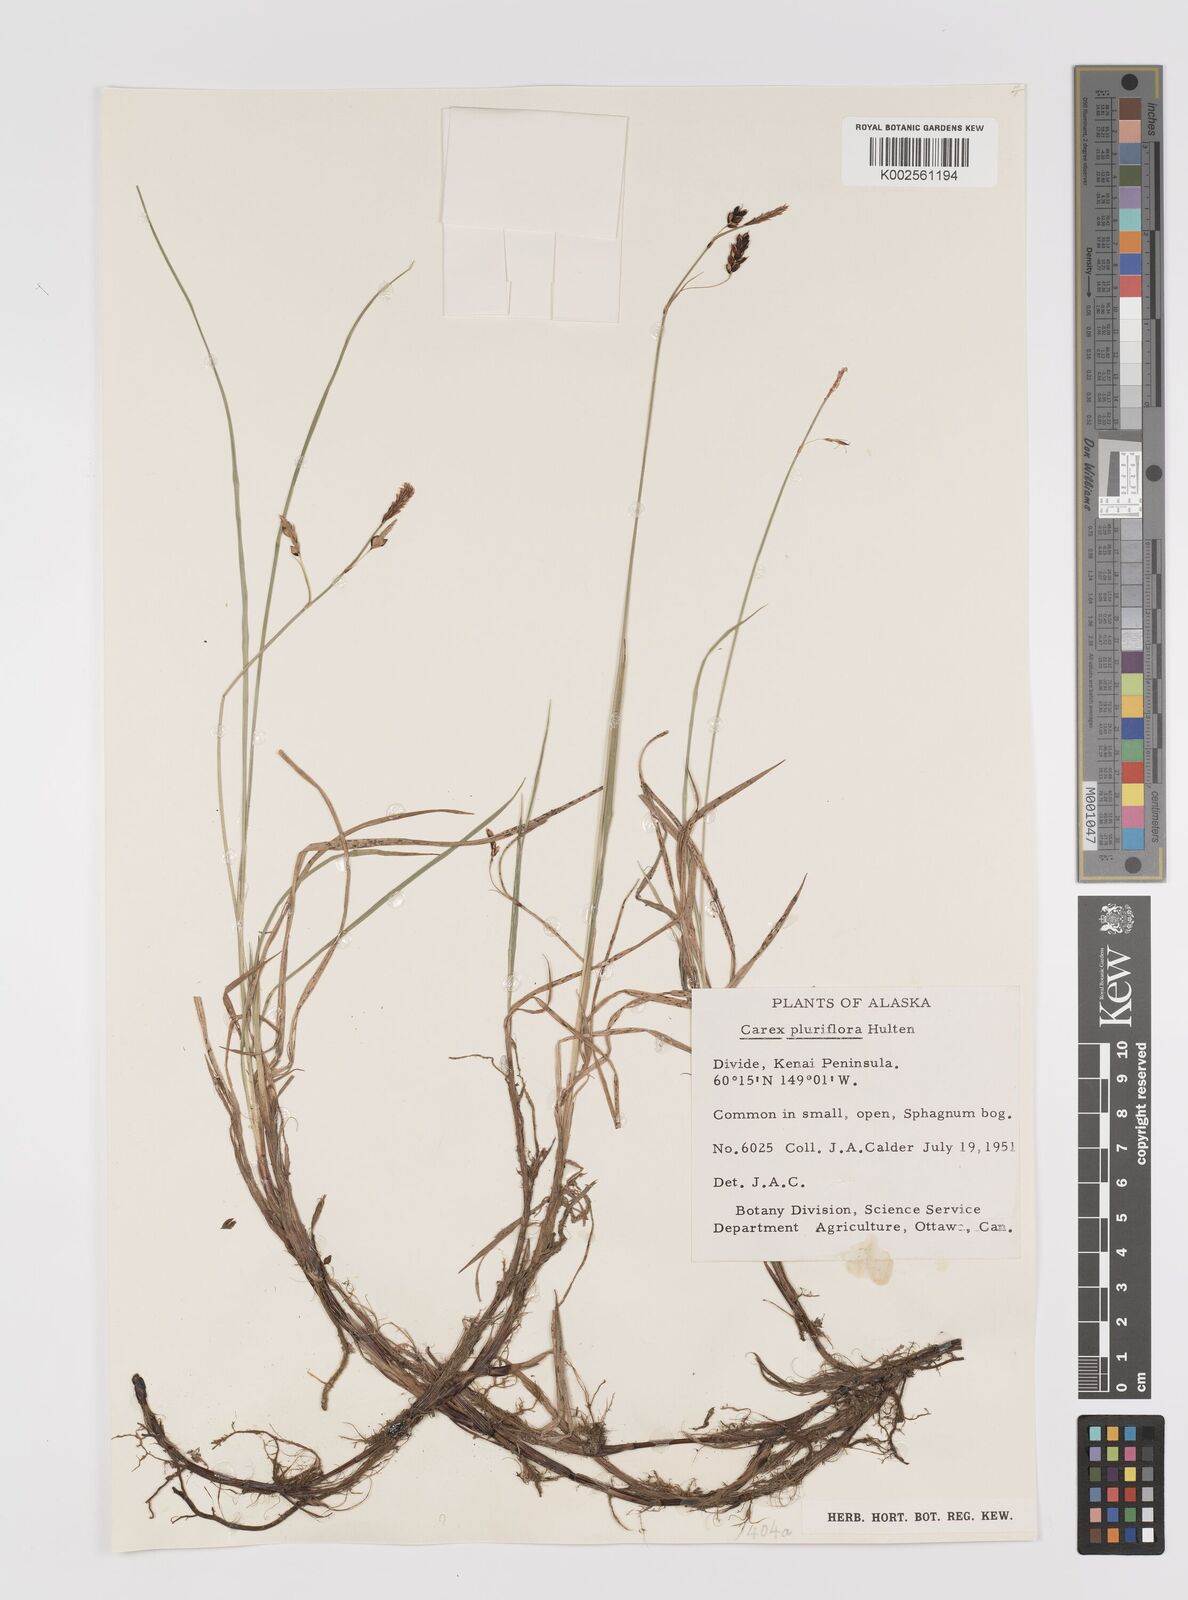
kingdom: Plantae
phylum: Tracheophyta
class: Liliopsida
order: Poales
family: Cyperaceae
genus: Carex
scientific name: Carex pluriflora
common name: Manyflower sedge
